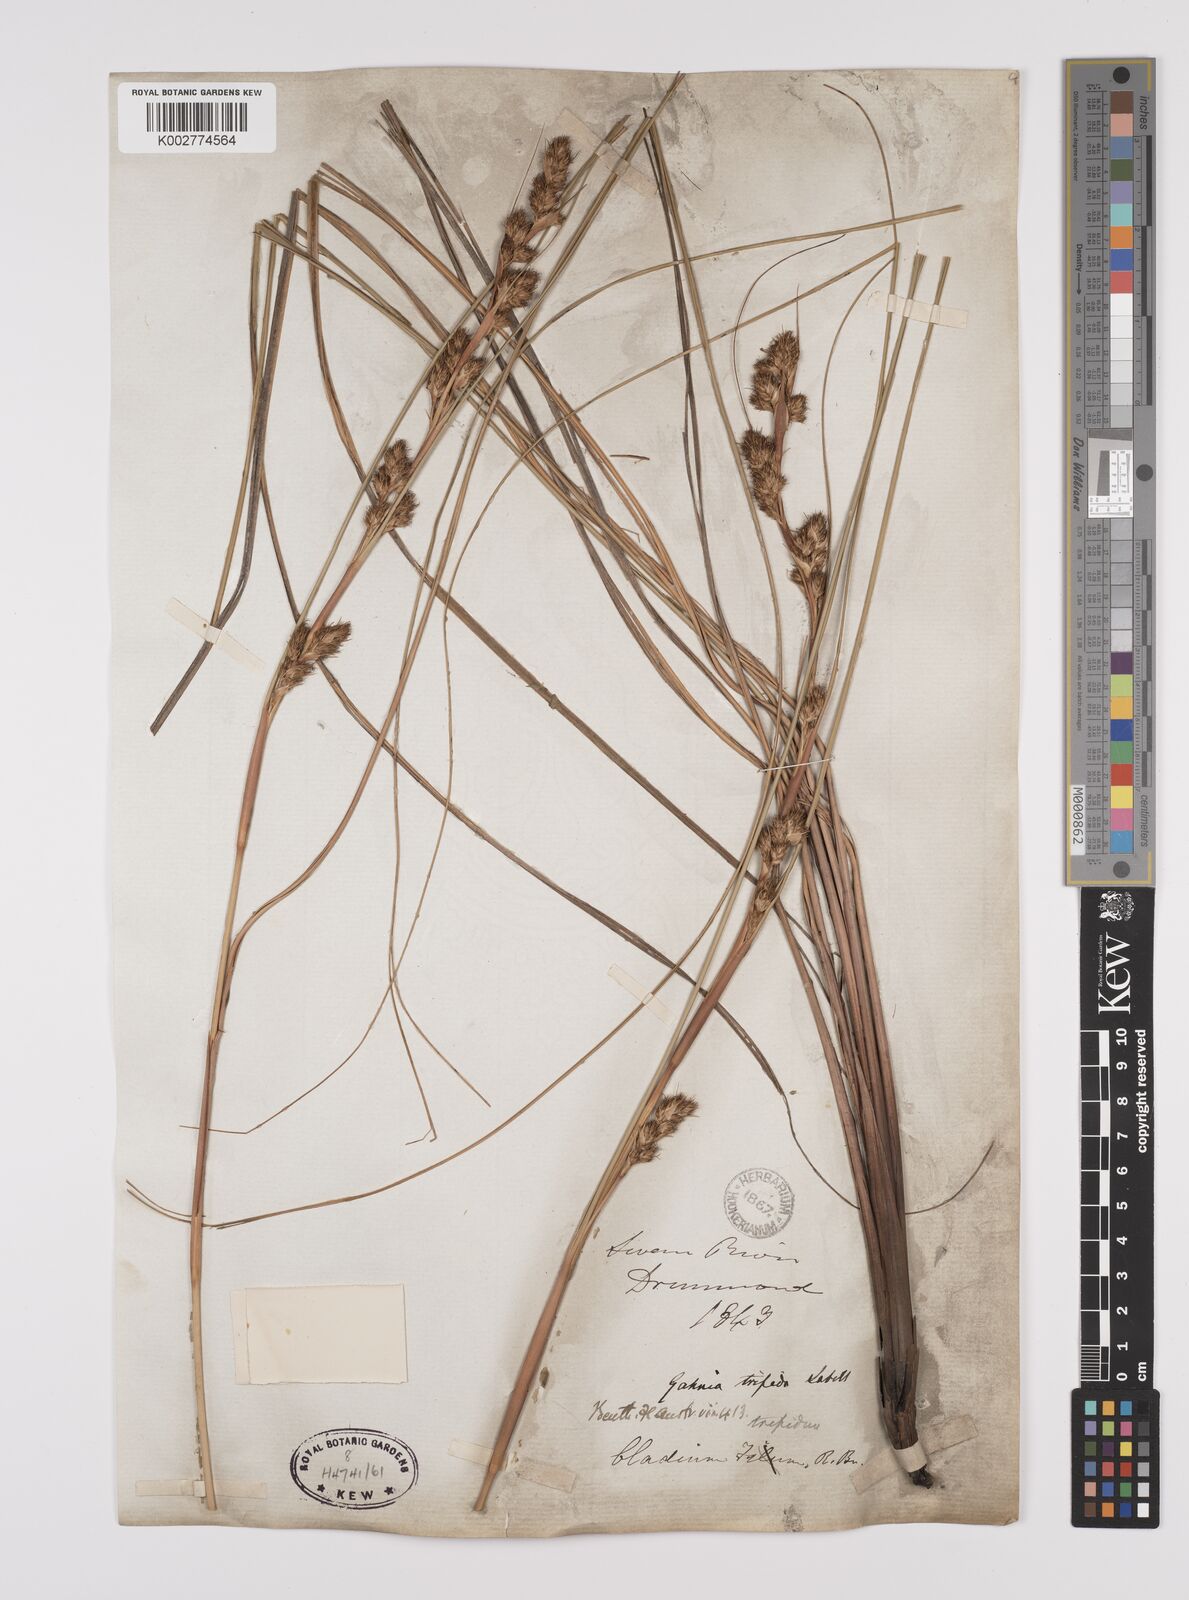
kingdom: Plantae
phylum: Tracheophyta
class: Liliopsida
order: Poales
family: Cyperaceae
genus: Gahnia
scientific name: Gahnia trifida
